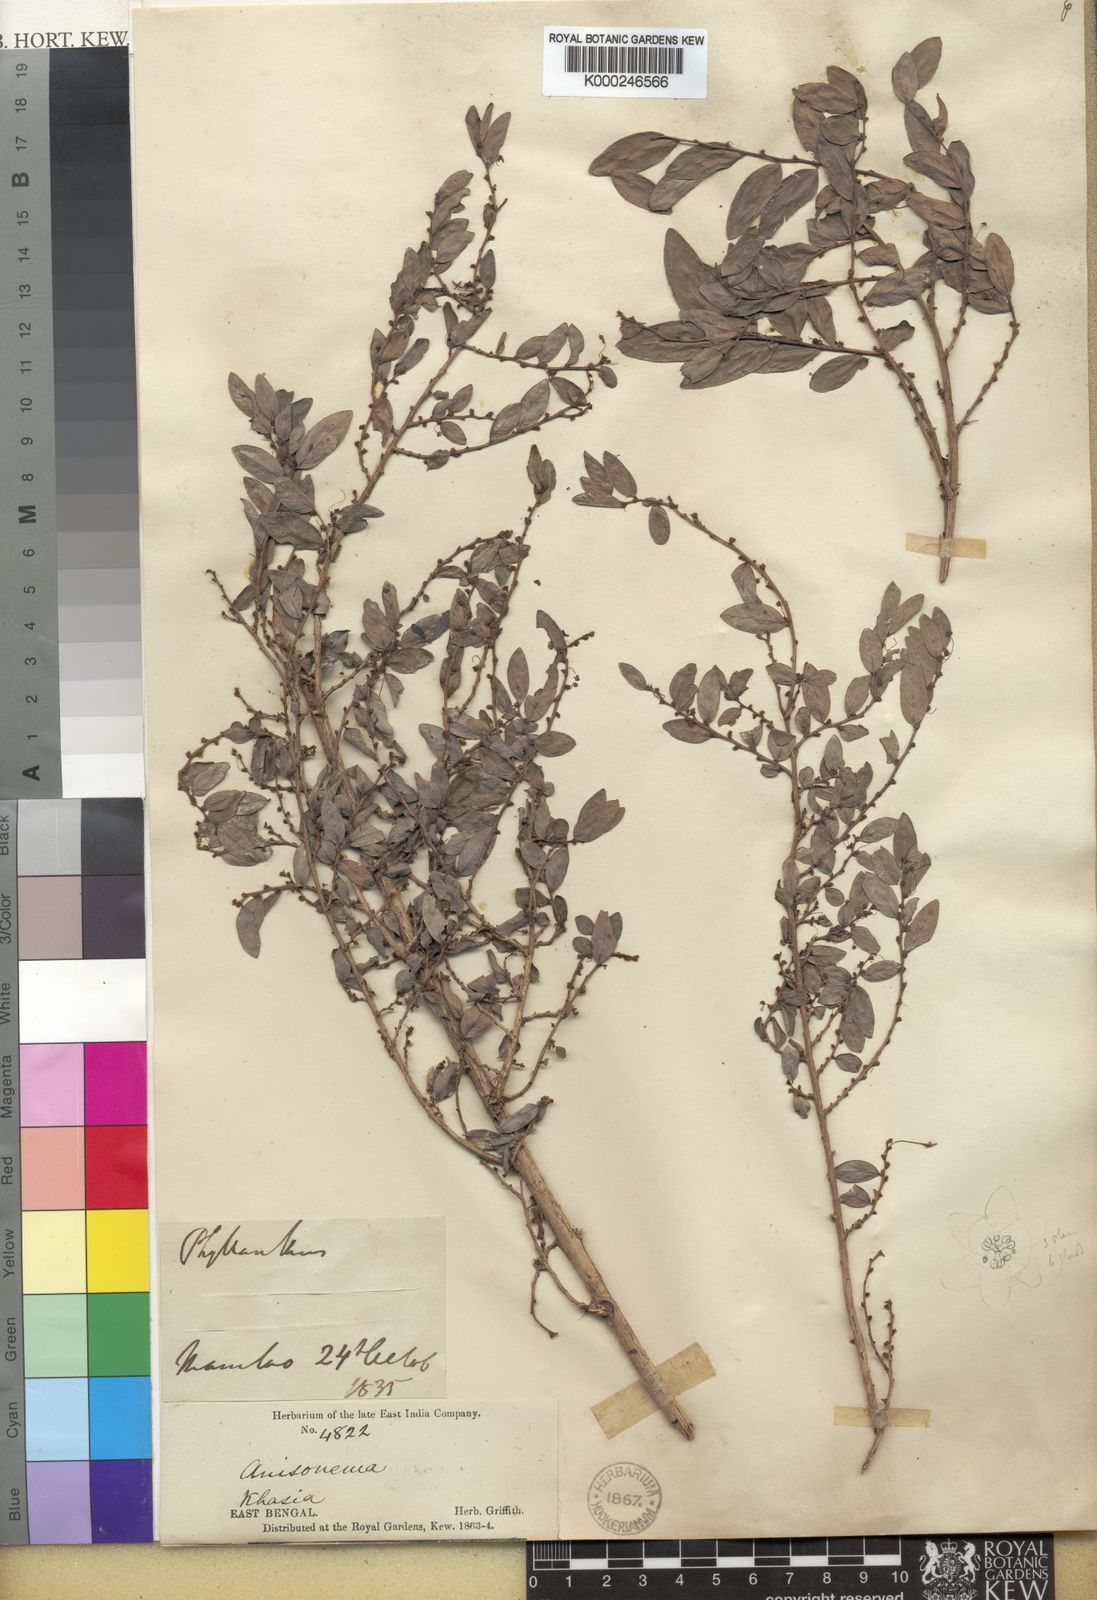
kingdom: Plantae
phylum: Tracheophyta
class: Magnoliopsida
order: Malpighiales
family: Phyllanthaceae
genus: Phyllanthus
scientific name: Phyllanthus stylosus
